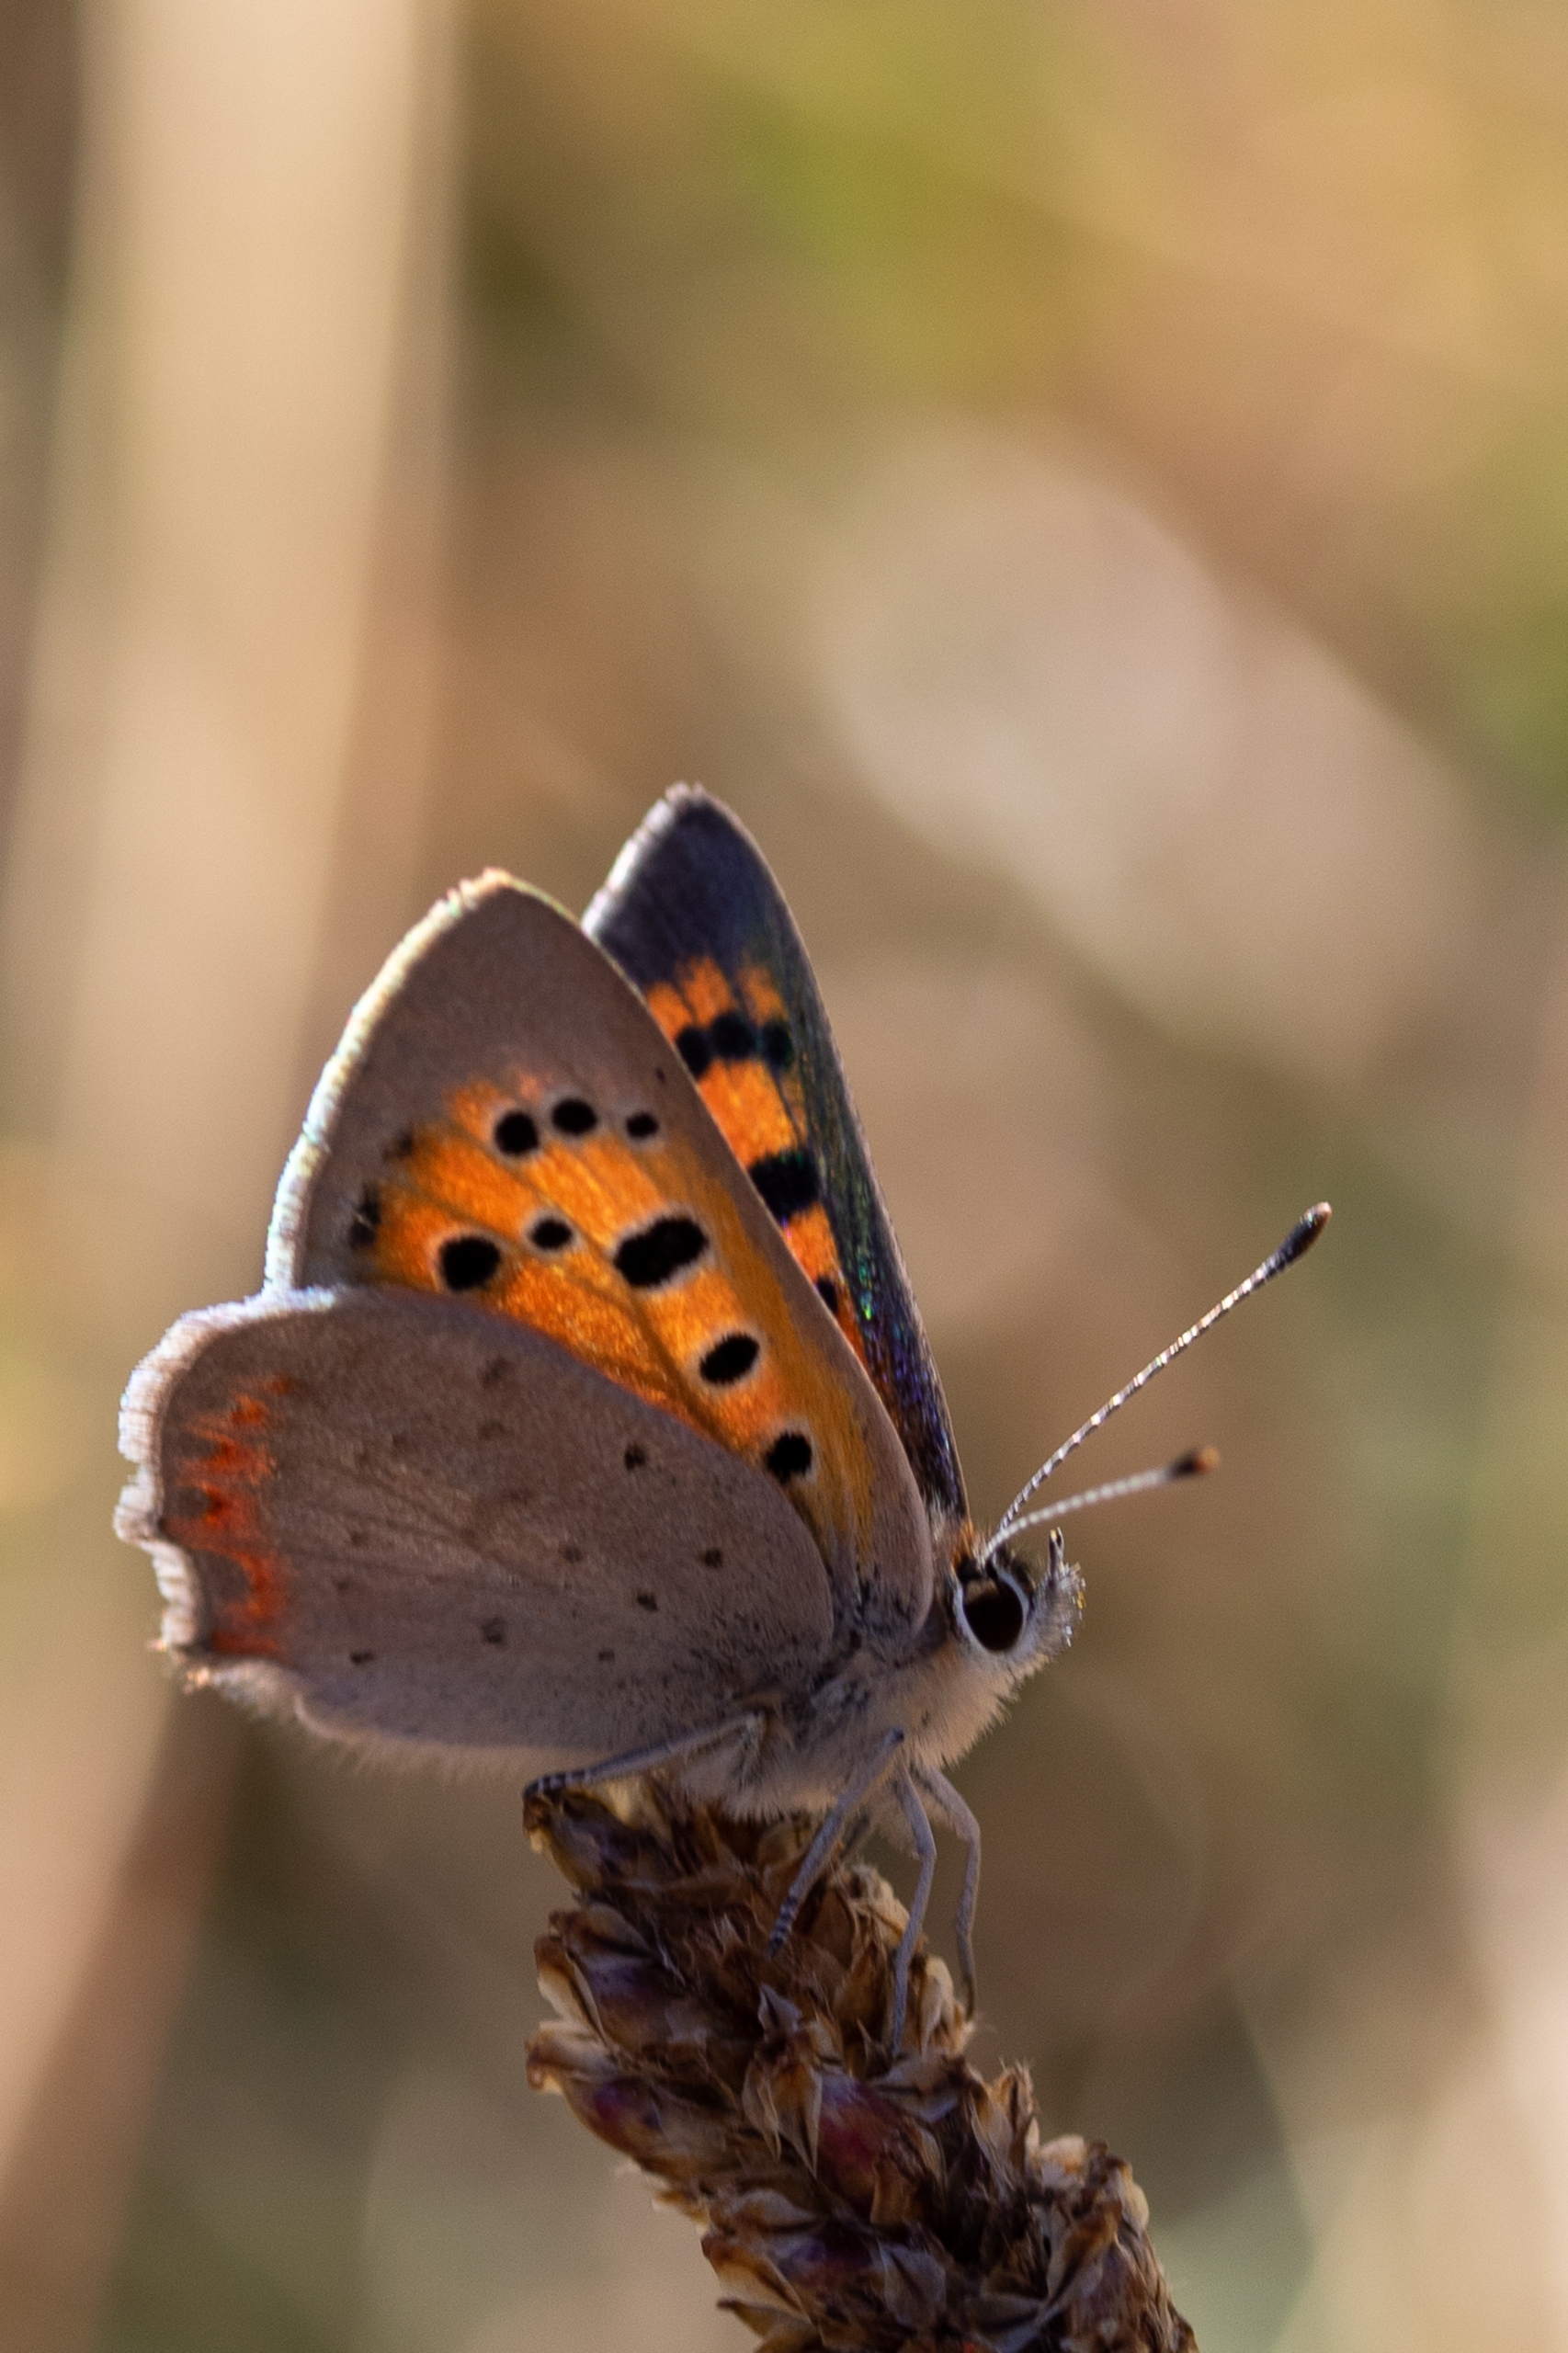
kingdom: Animalia
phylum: Arthropoda
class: Insecta
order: Lepidoptera
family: Lycaenidae
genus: Lycaena
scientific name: Lycaena phlaeas
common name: Lille ildfugl
